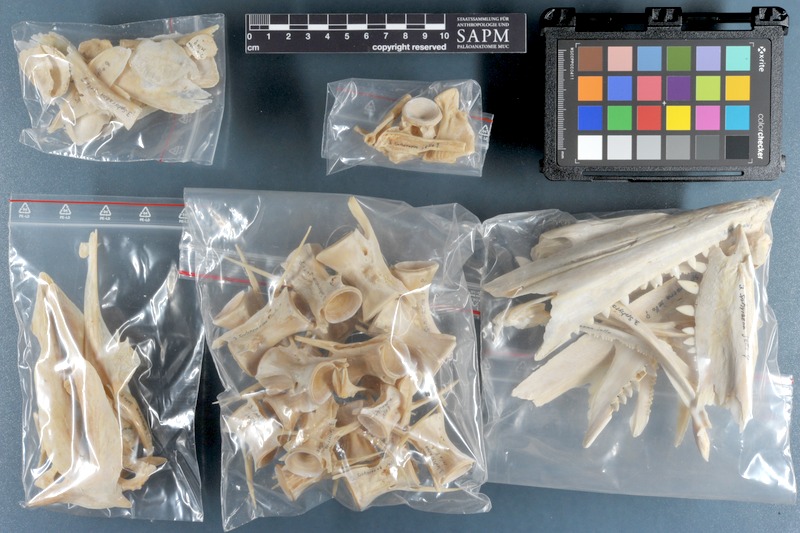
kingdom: Animalia
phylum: Chordata
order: Perciformes
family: Sphyraenidae
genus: Sphyraena
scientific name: Sphyraena jello
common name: Pickhandle barracuda
